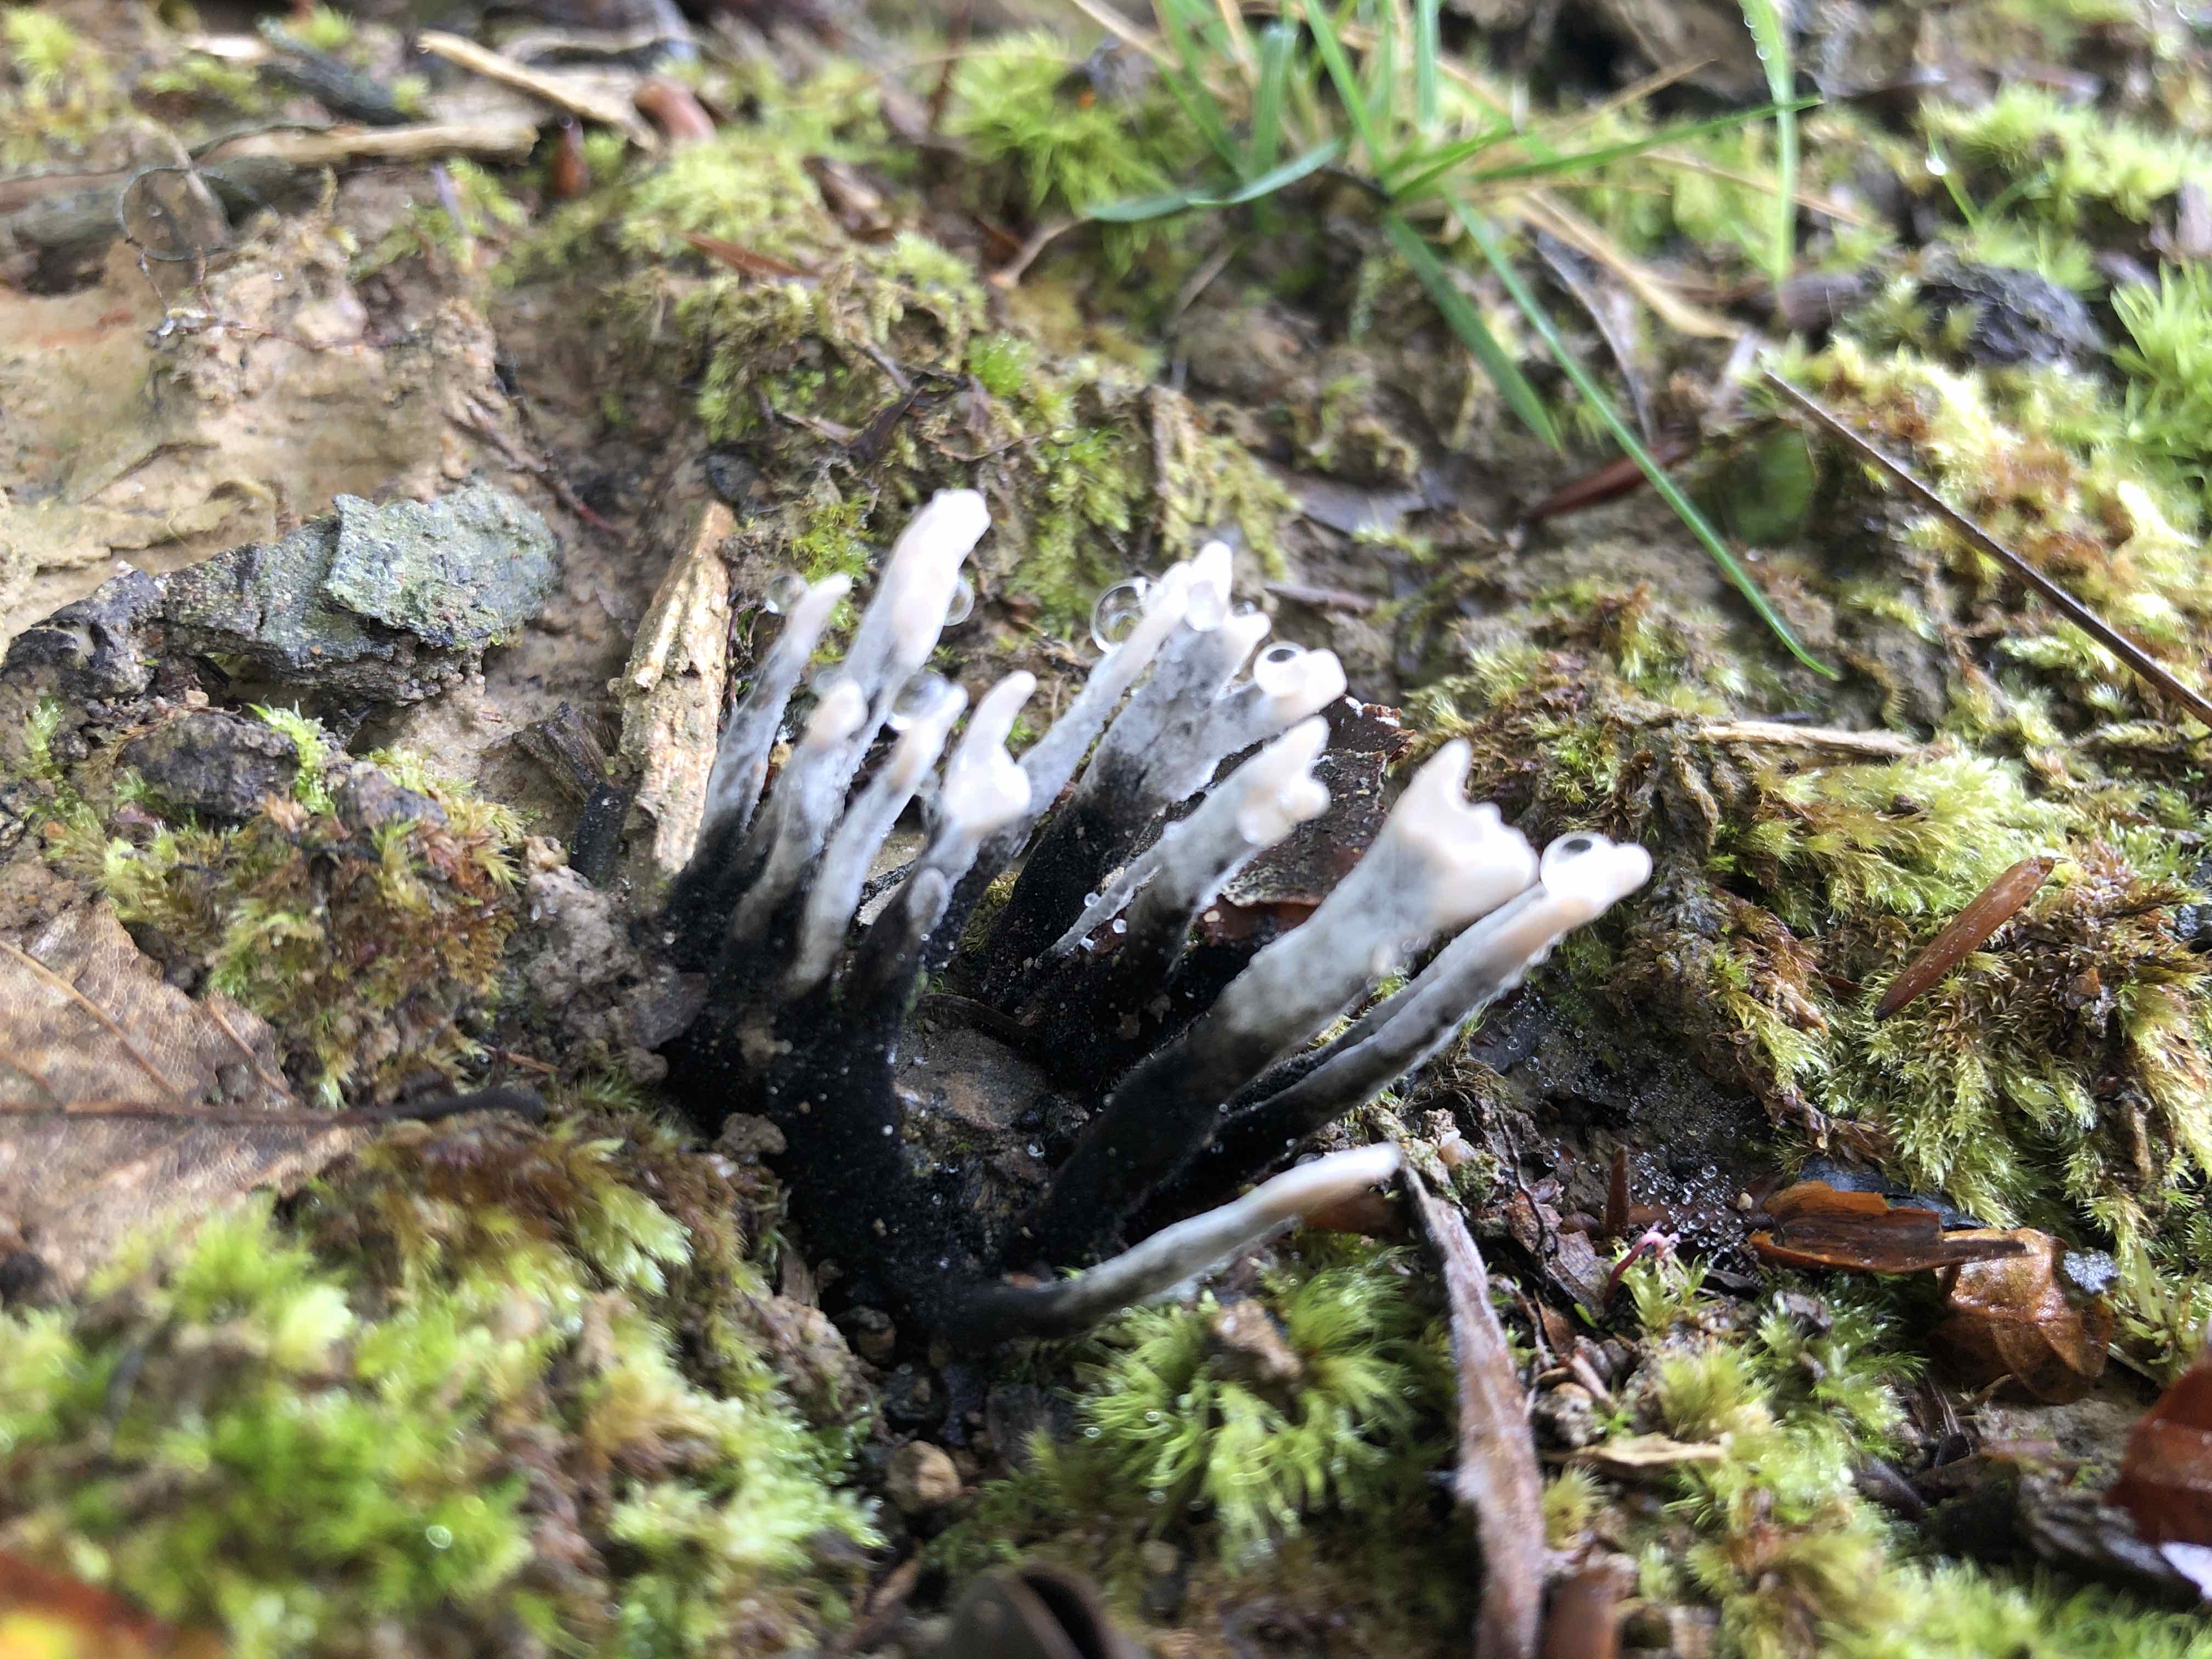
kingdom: Fungi
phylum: Ascomycota
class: Sordariomycetes
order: Xylariales
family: Xylariaceae
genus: Xylaria
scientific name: Xylaria hypoxylon
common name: grenet stødsvamp
